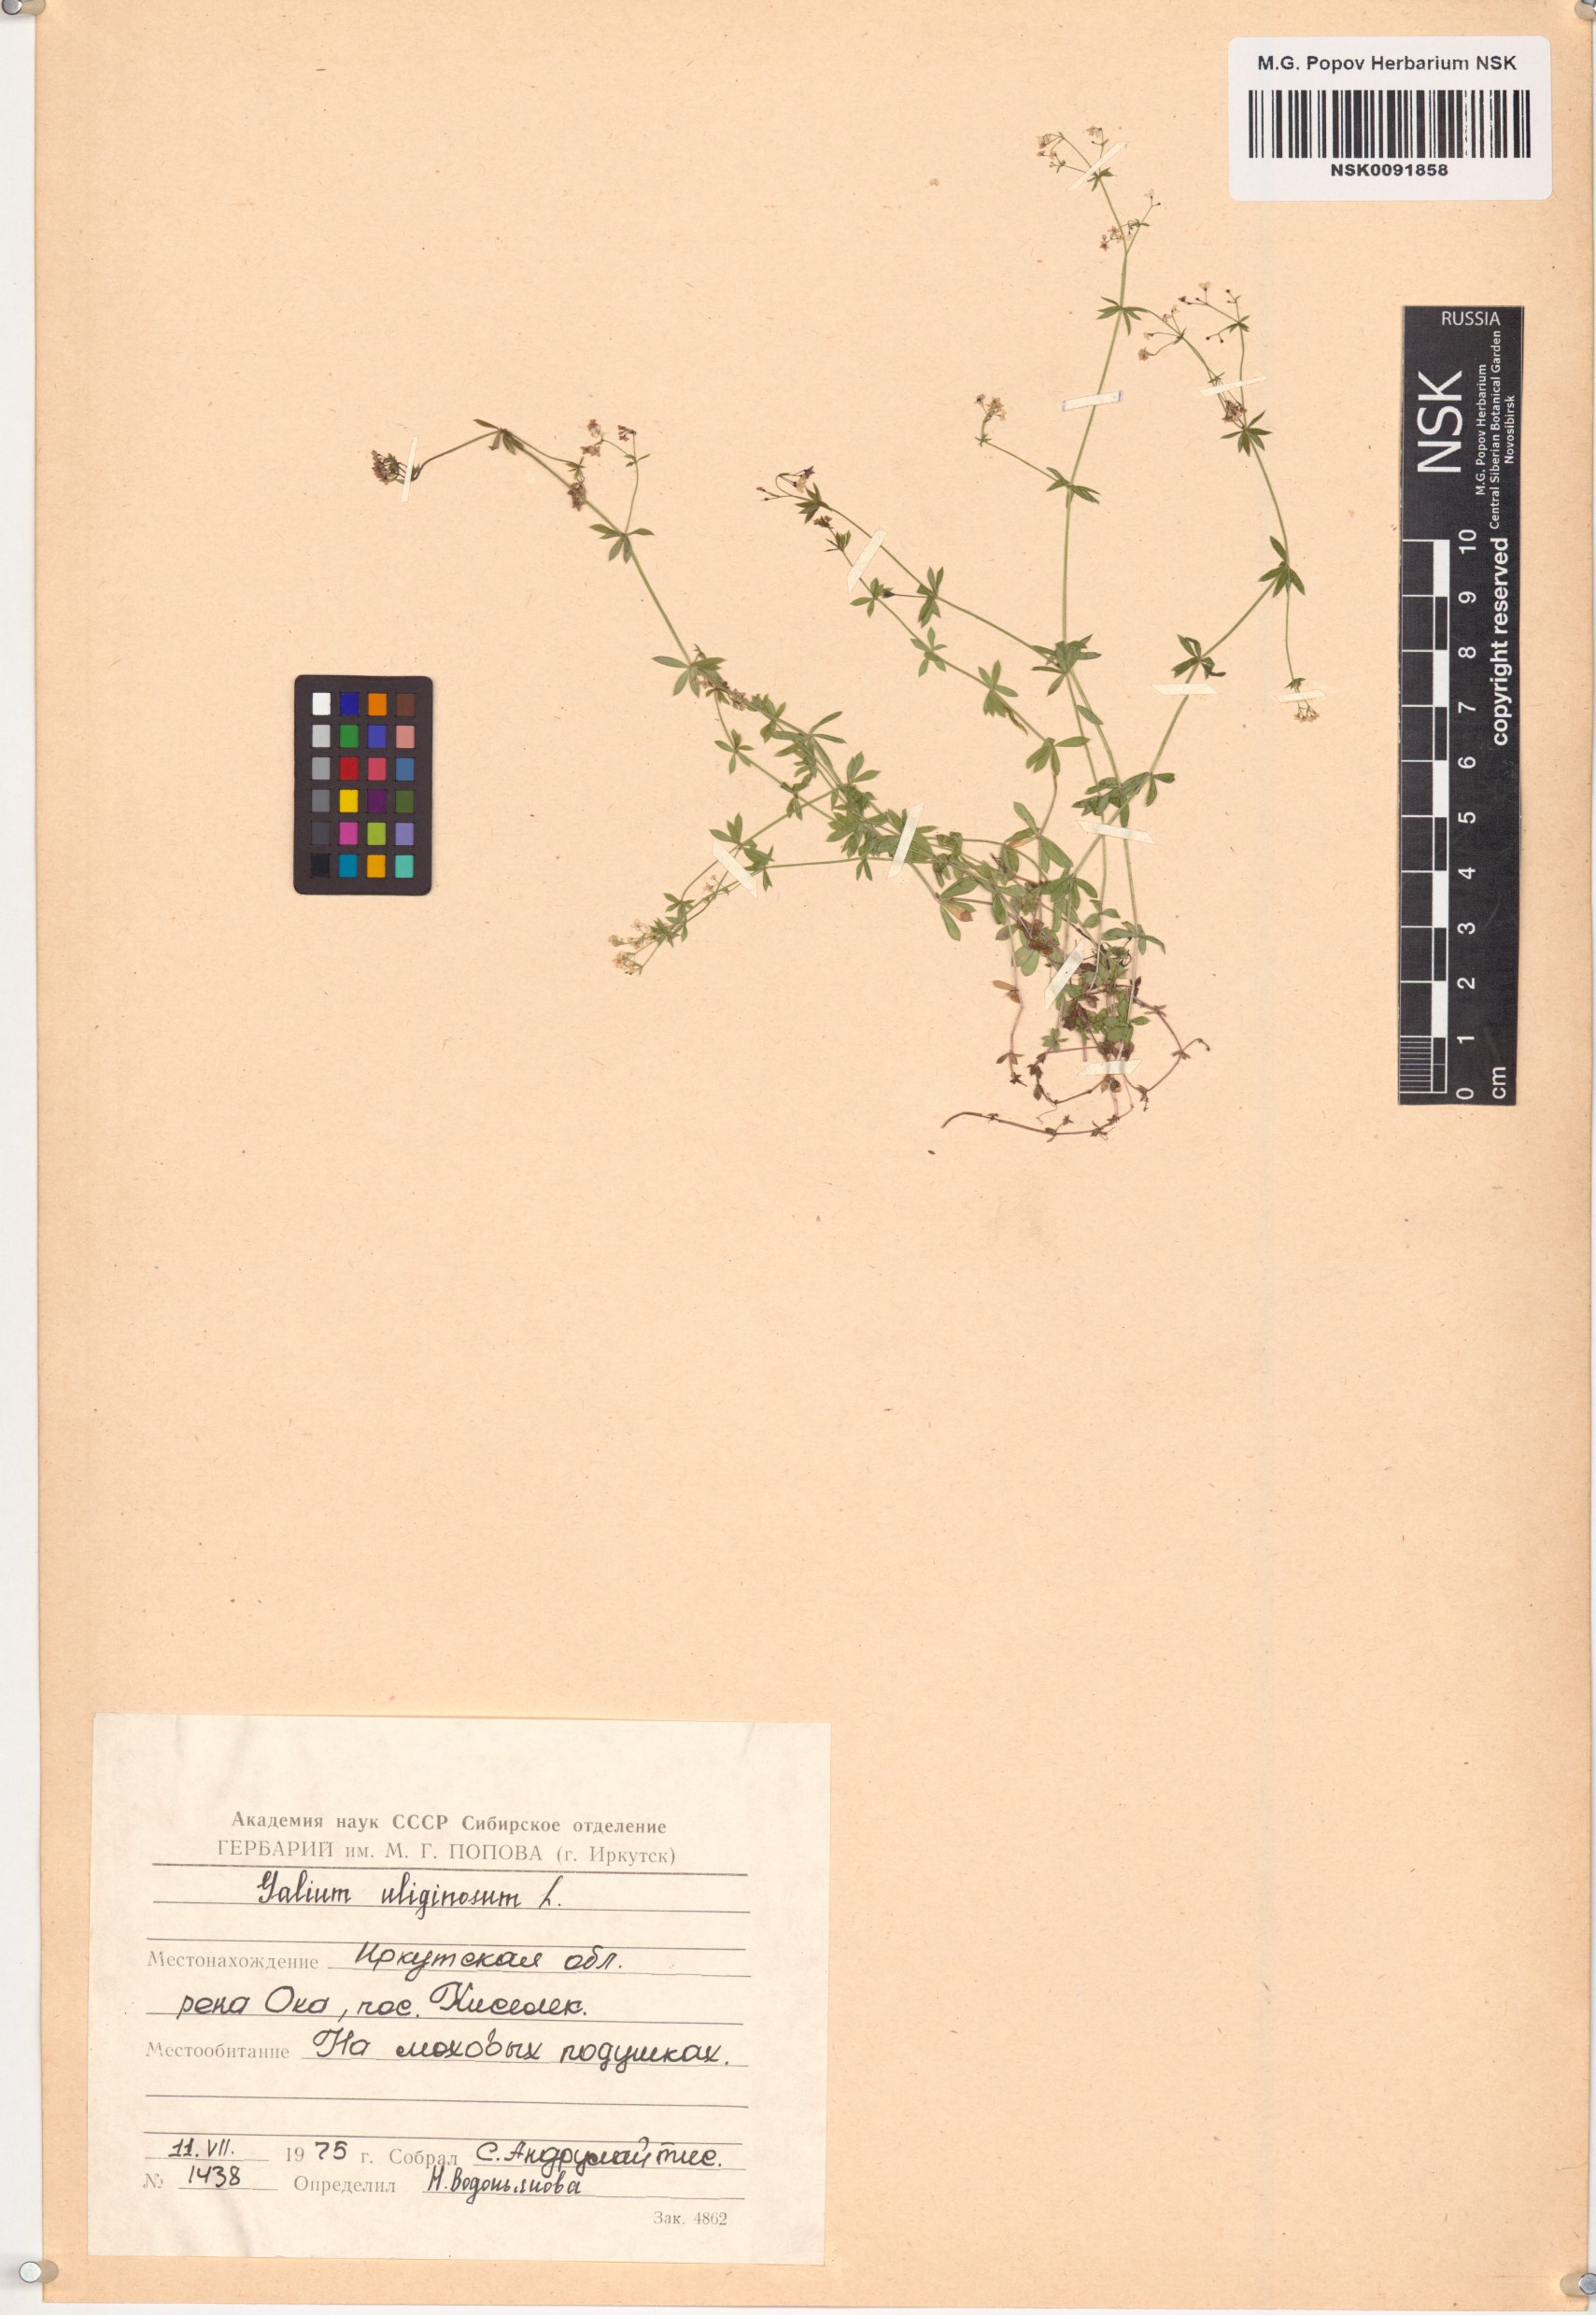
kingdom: Plantae
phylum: Tracheophyta
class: Magnoliopsida
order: Gentianales
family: Rubiaceae
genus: Galium
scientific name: Galium uliginosum
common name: Fen bedstraw
